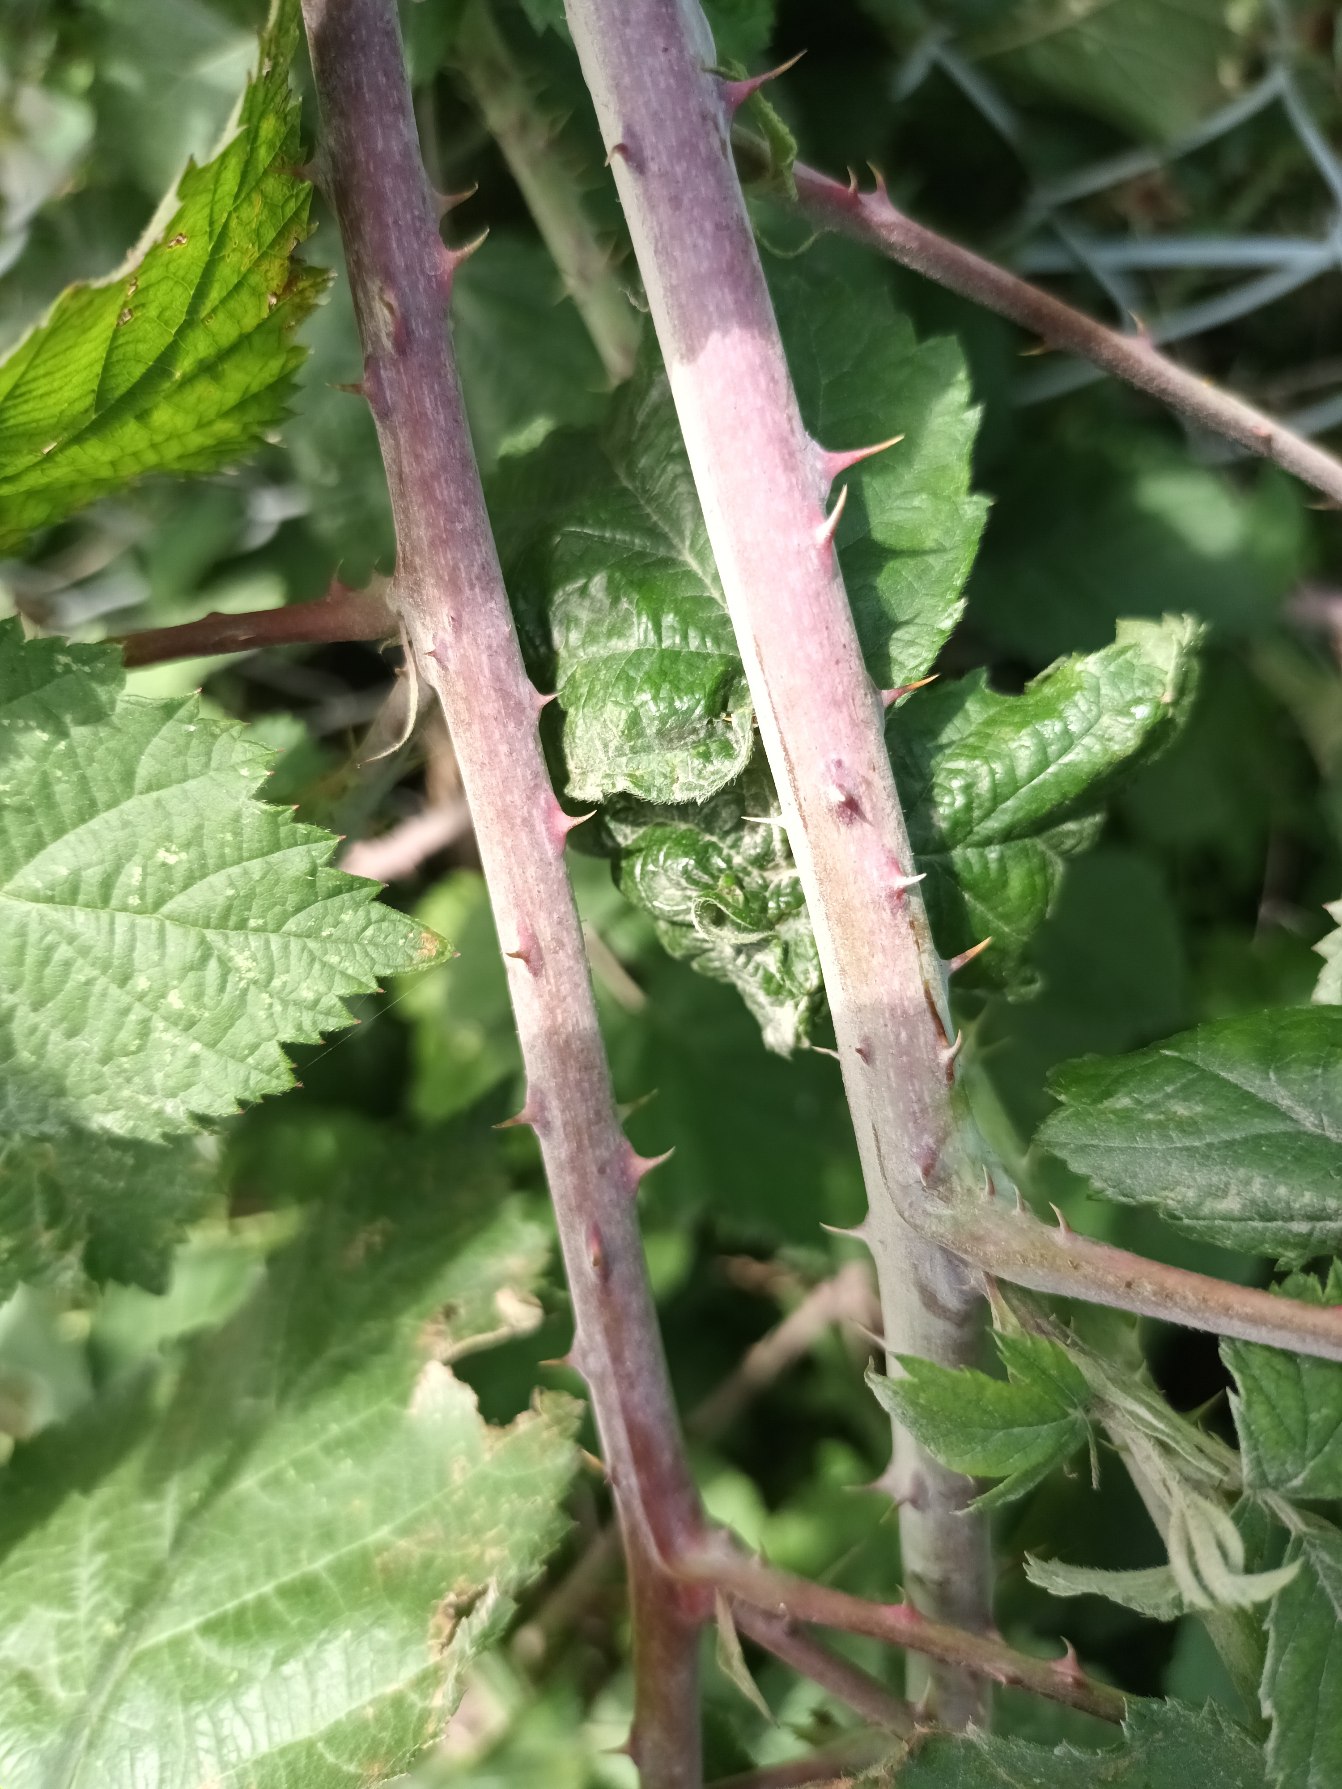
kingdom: Plantae
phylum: Tracheophyta
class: Magnoliopsida
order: Rosales
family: Rosaceae
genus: Rubus
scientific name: Rubus
